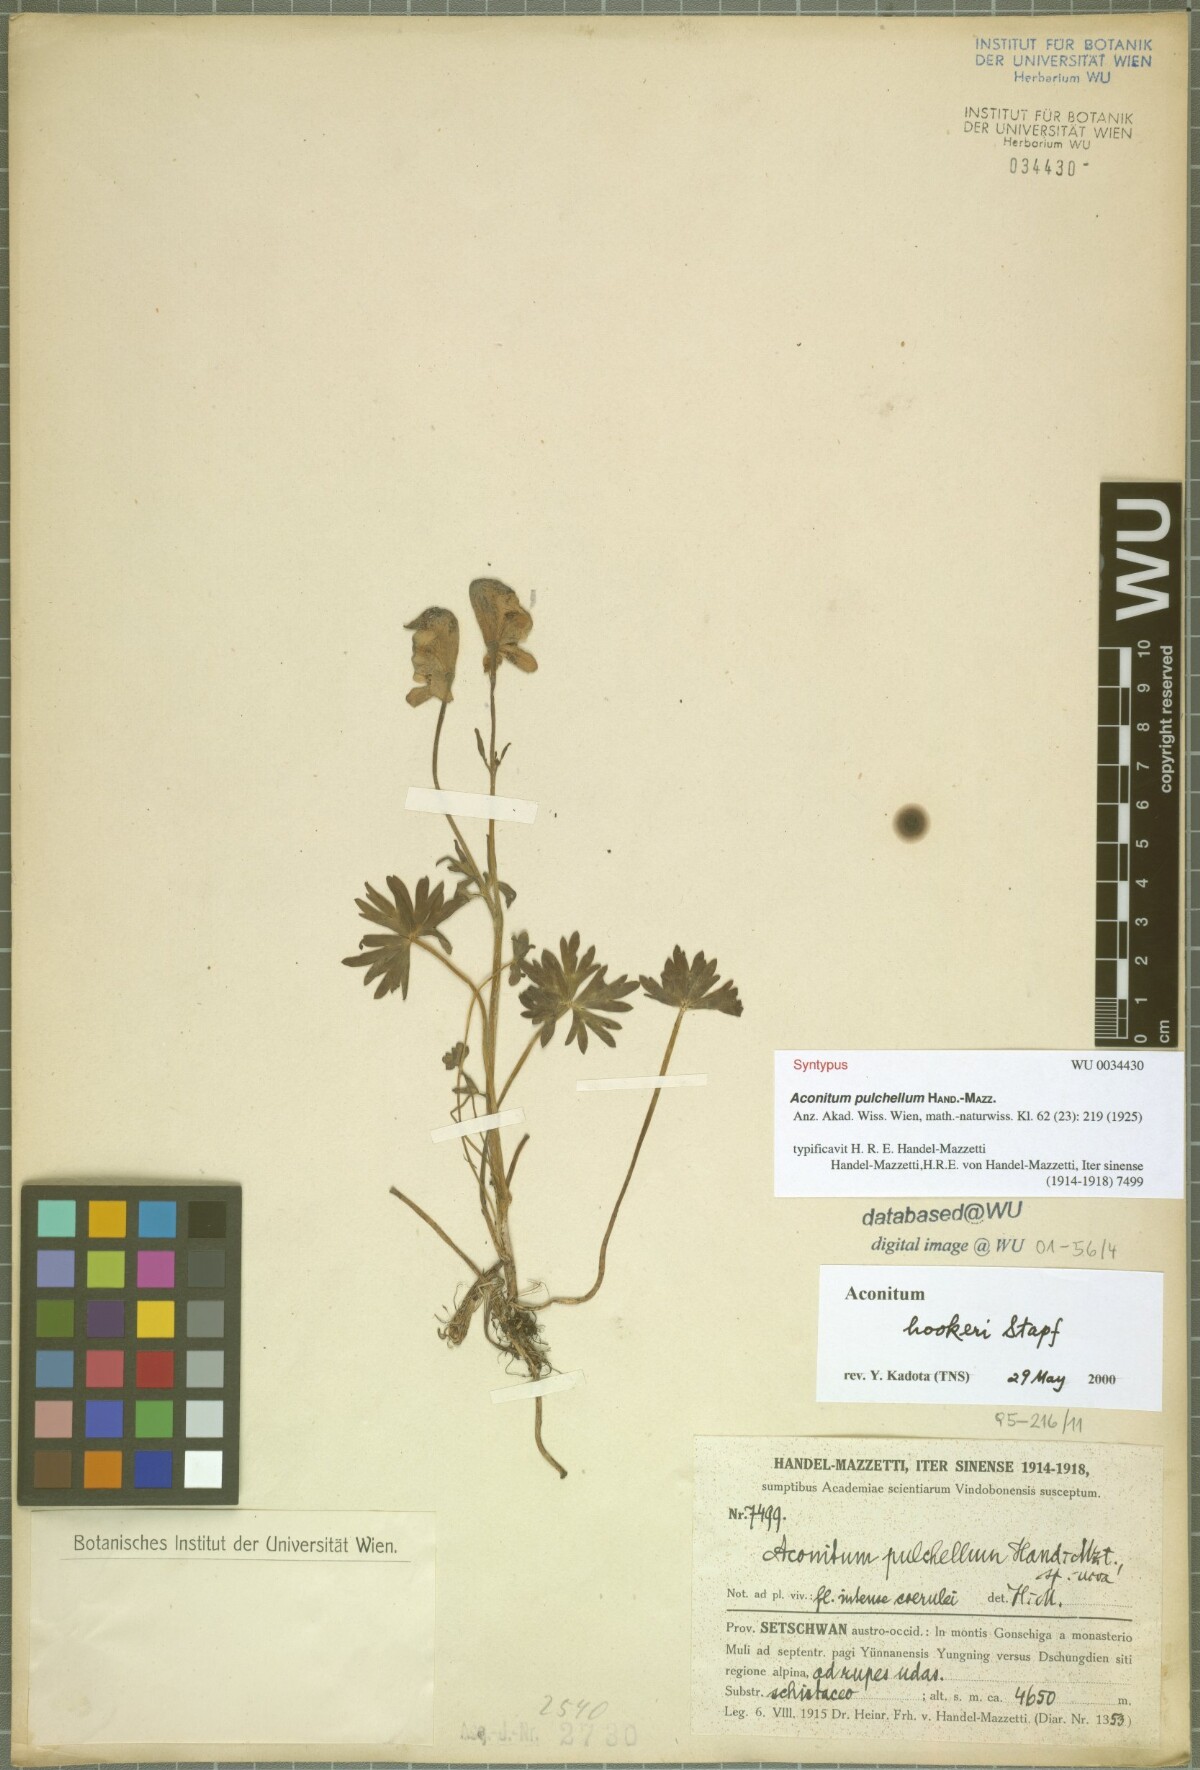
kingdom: Plantae
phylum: Tracheophyta
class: Magnoliopsida
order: Ranunculales
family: Ranunculaceae
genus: Aconitum
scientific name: Aconitum pulchellum
